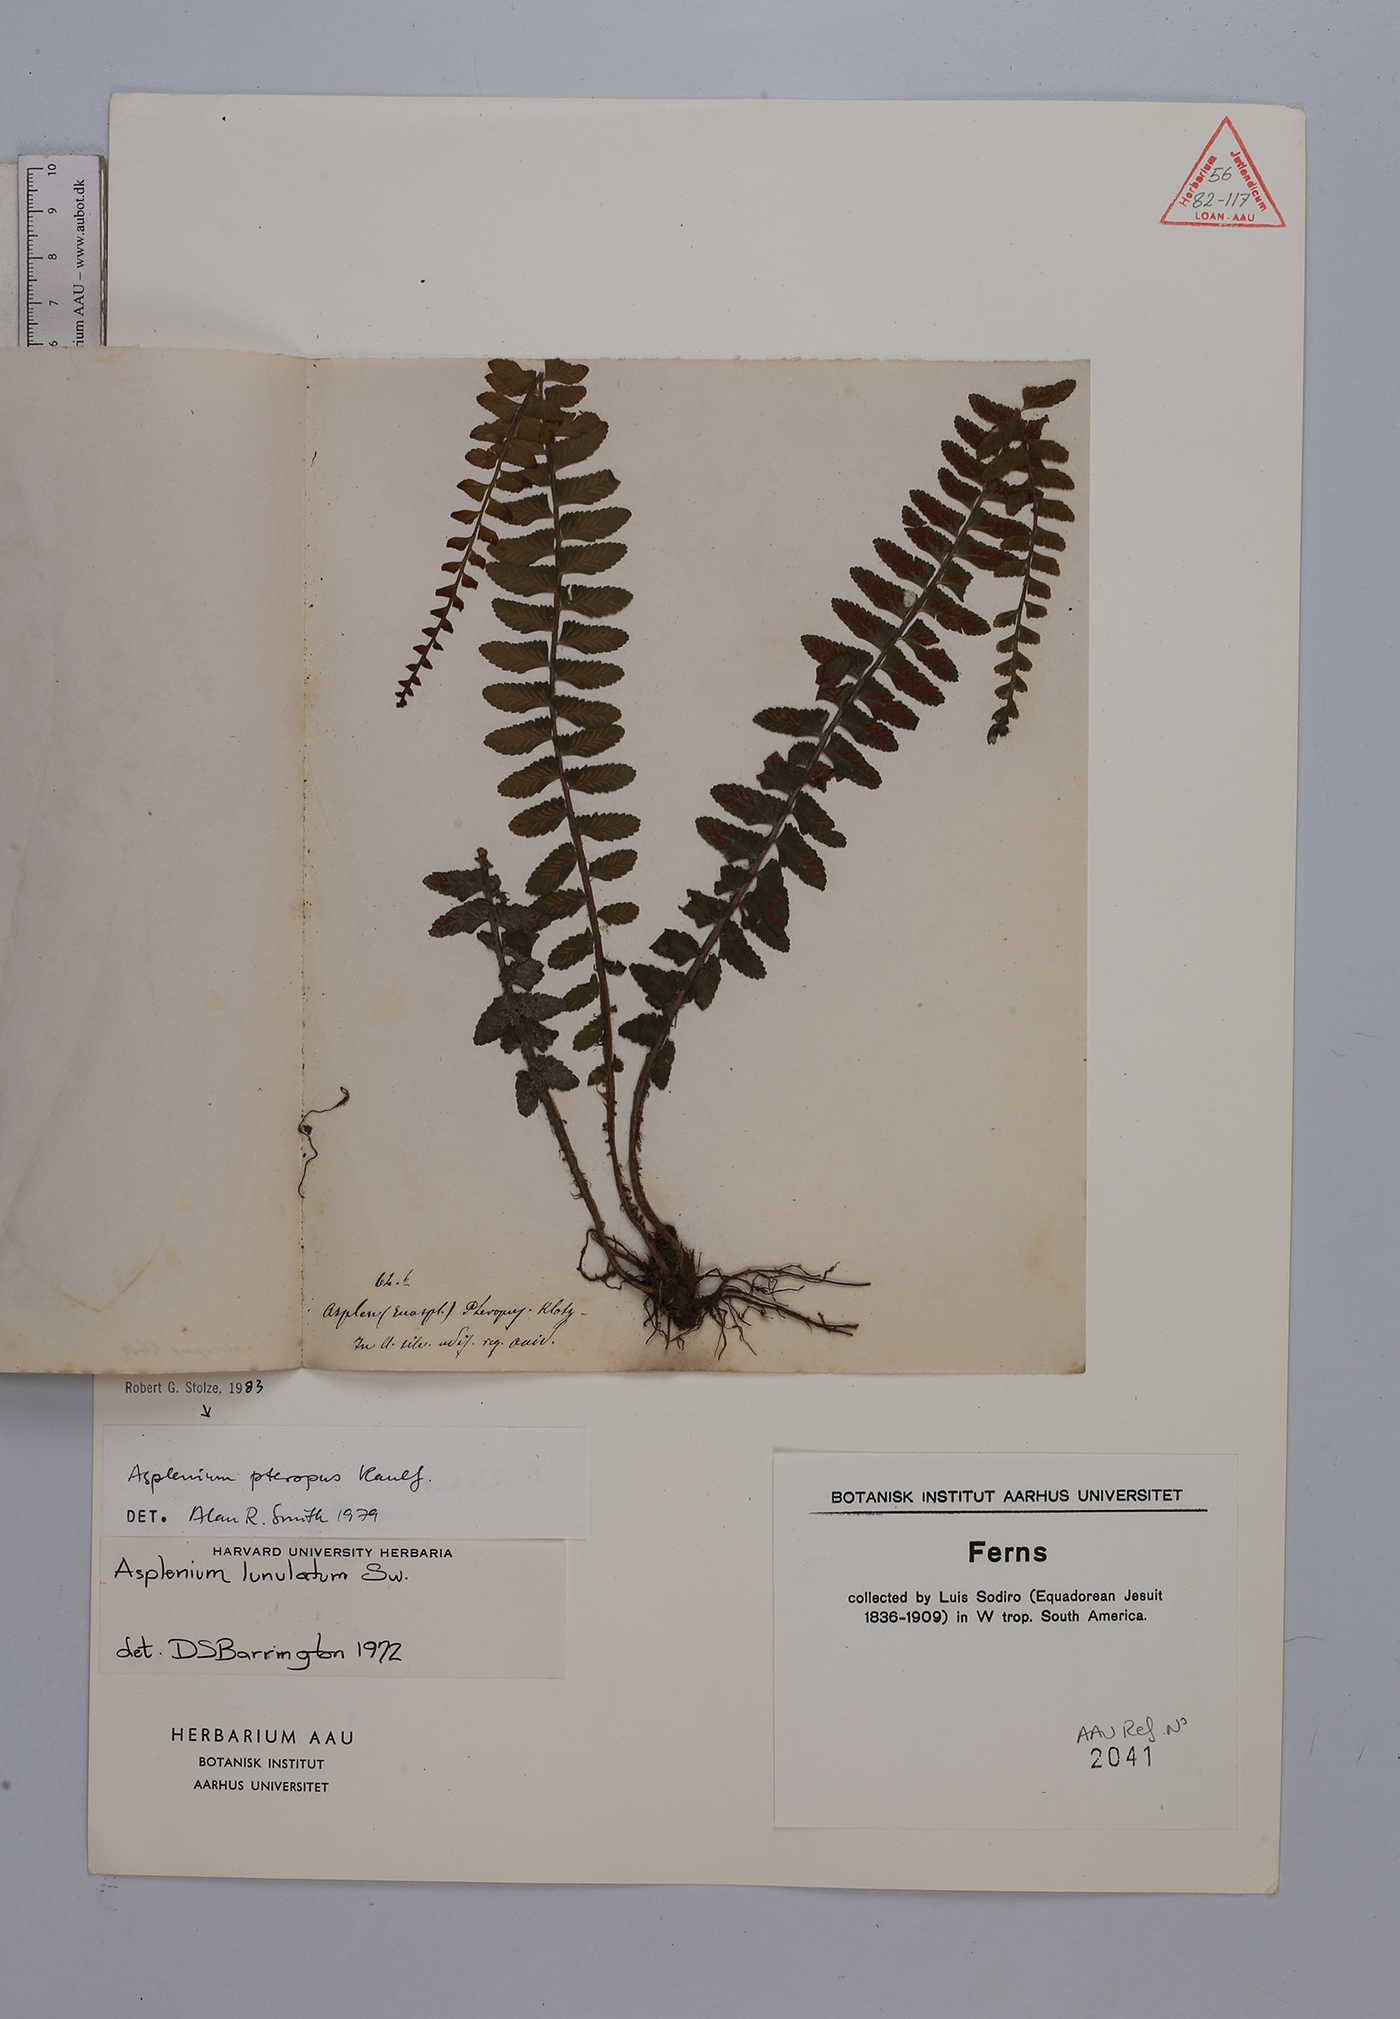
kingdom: Plantae
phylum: Tracheophyta
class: Polypodiopsida
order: Polypodiales
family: Aspleniaceae
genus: Asplenium
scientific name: Asplenium pteropus
